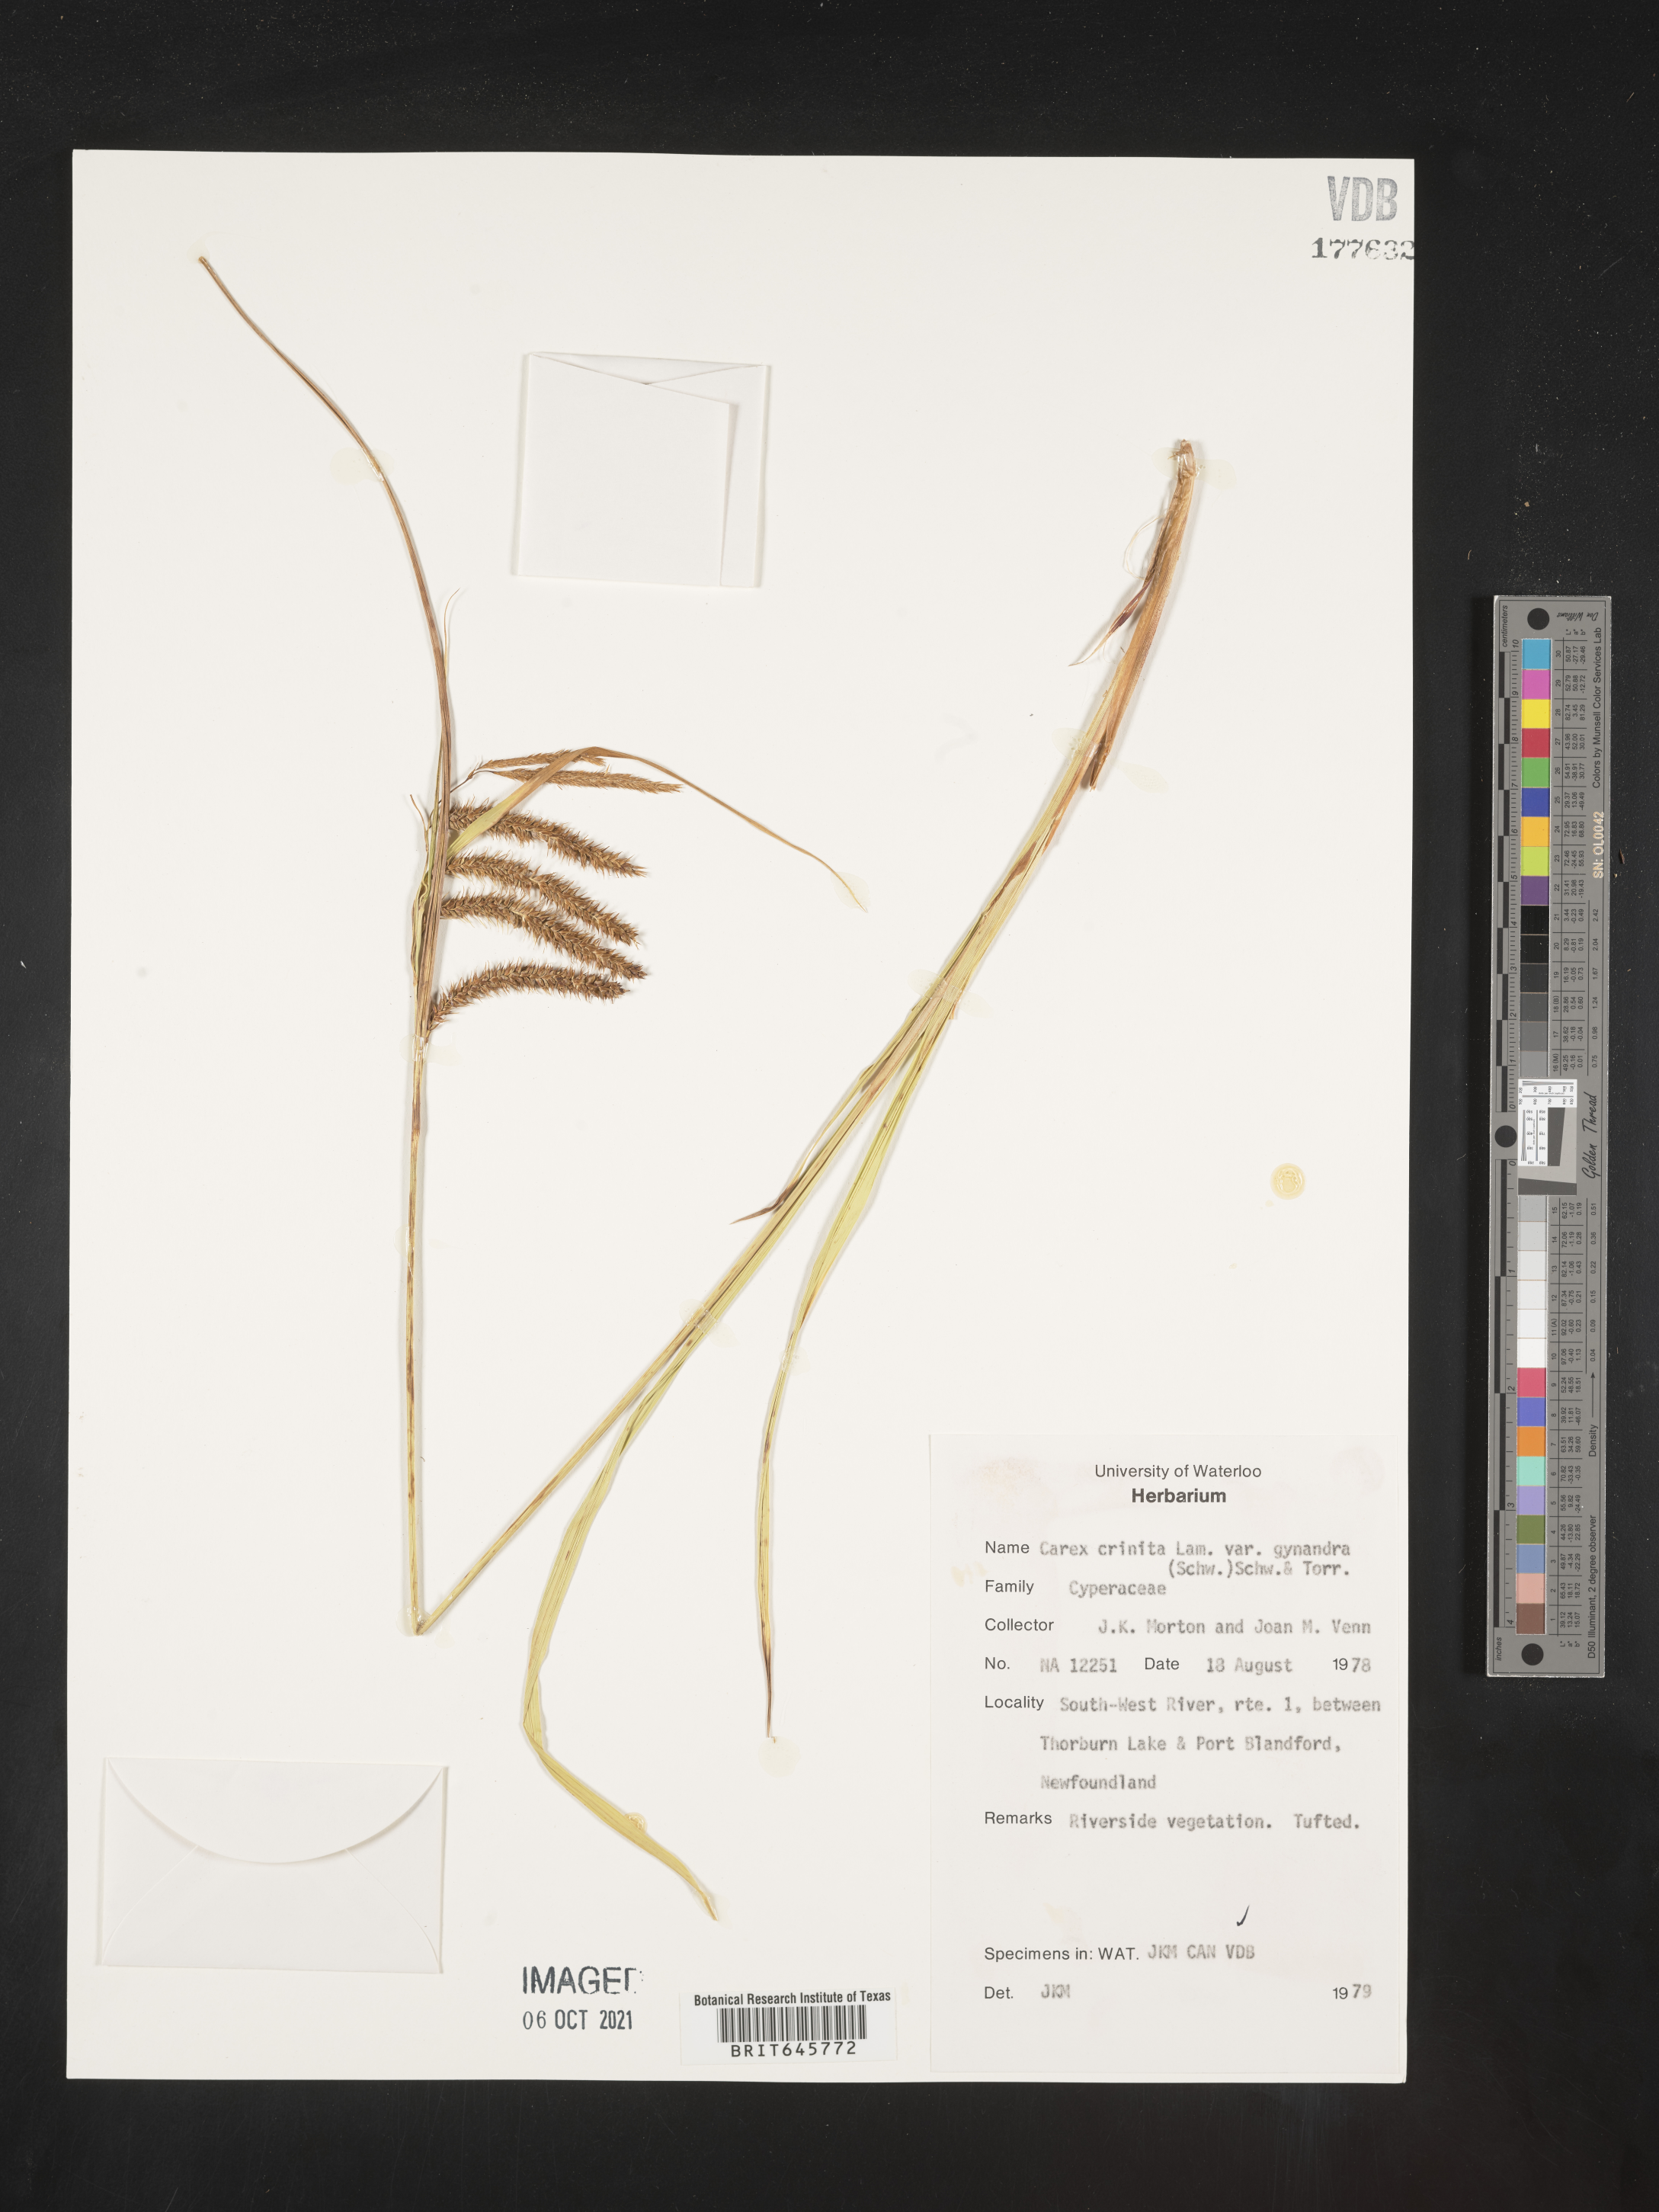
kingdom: Plantae
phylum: Tracheophyta
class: Liliopsida
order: Poales
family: Cyperaceae
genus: Carex
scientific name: Carex gynandra
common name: Nodding sedge
